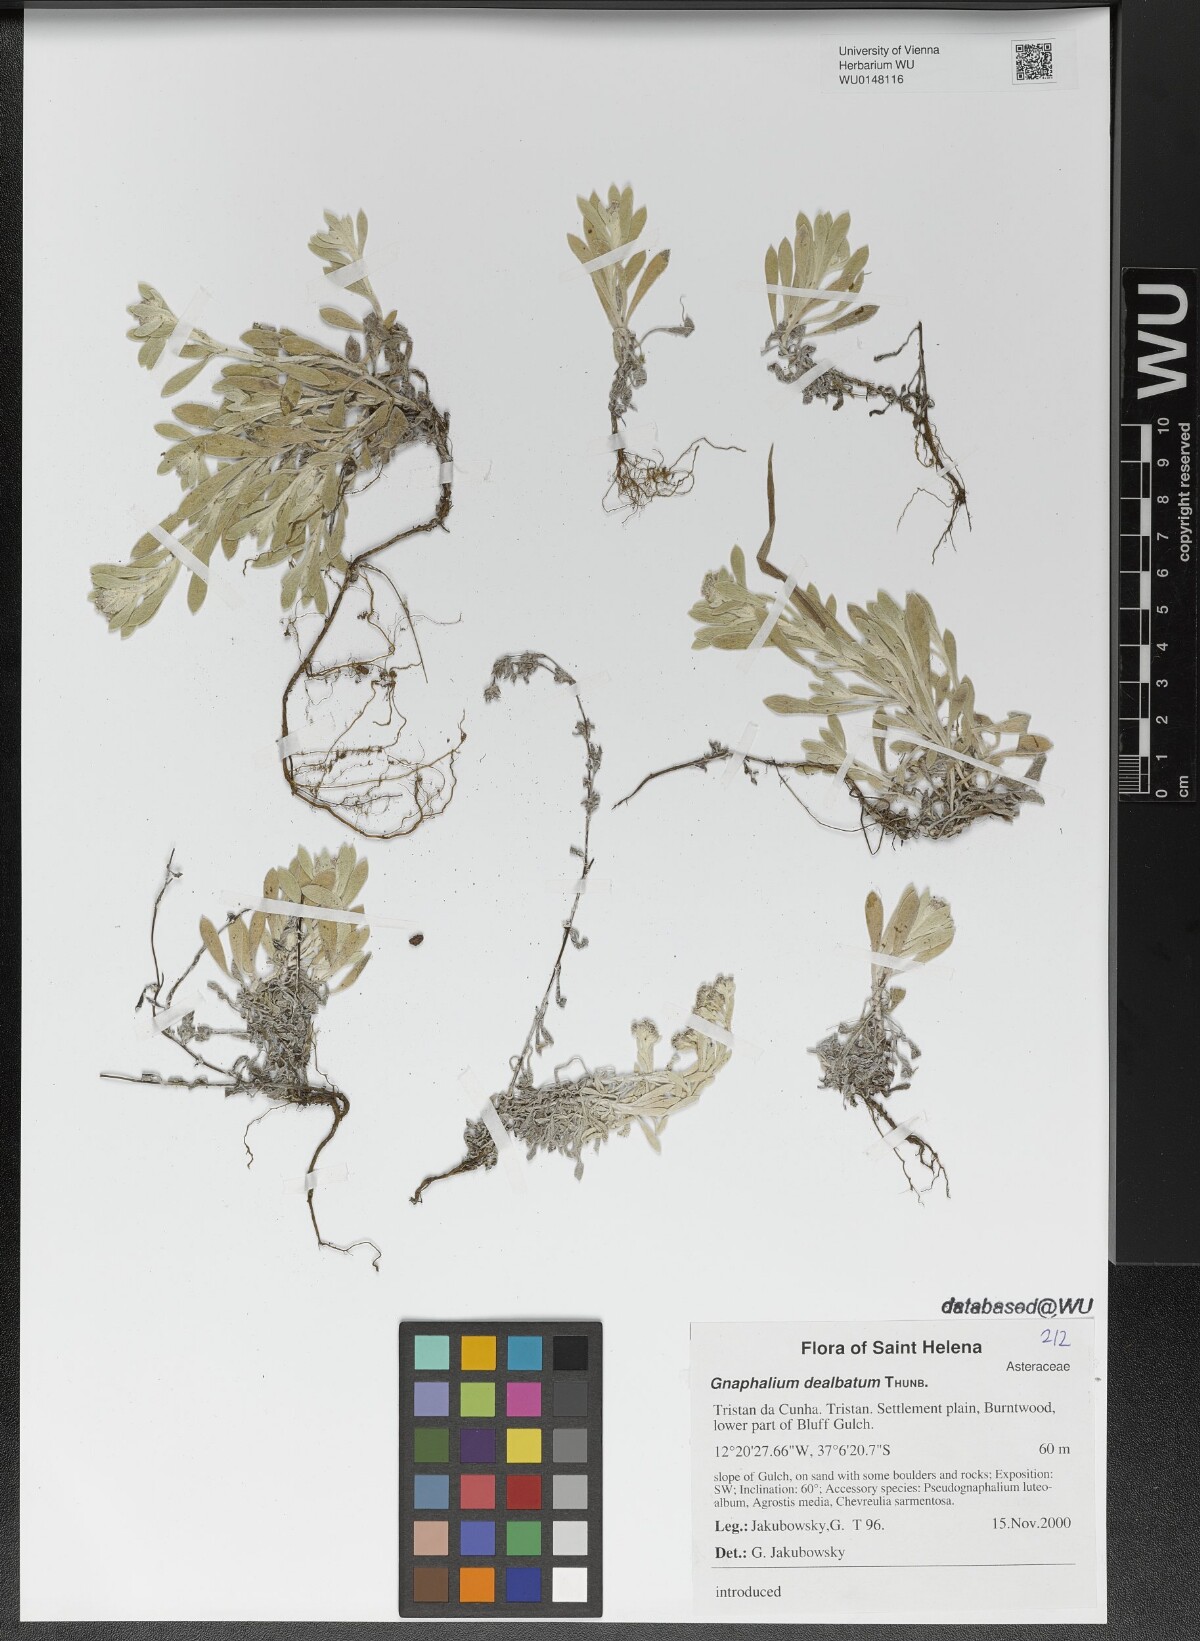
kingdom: Plantae
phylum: Tracheophyta
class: Magnoliopsida
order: Asterales
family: Asteraceae
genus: Vellereophyton
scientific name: Vellereophyton dealbatum
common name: White-cudweed
